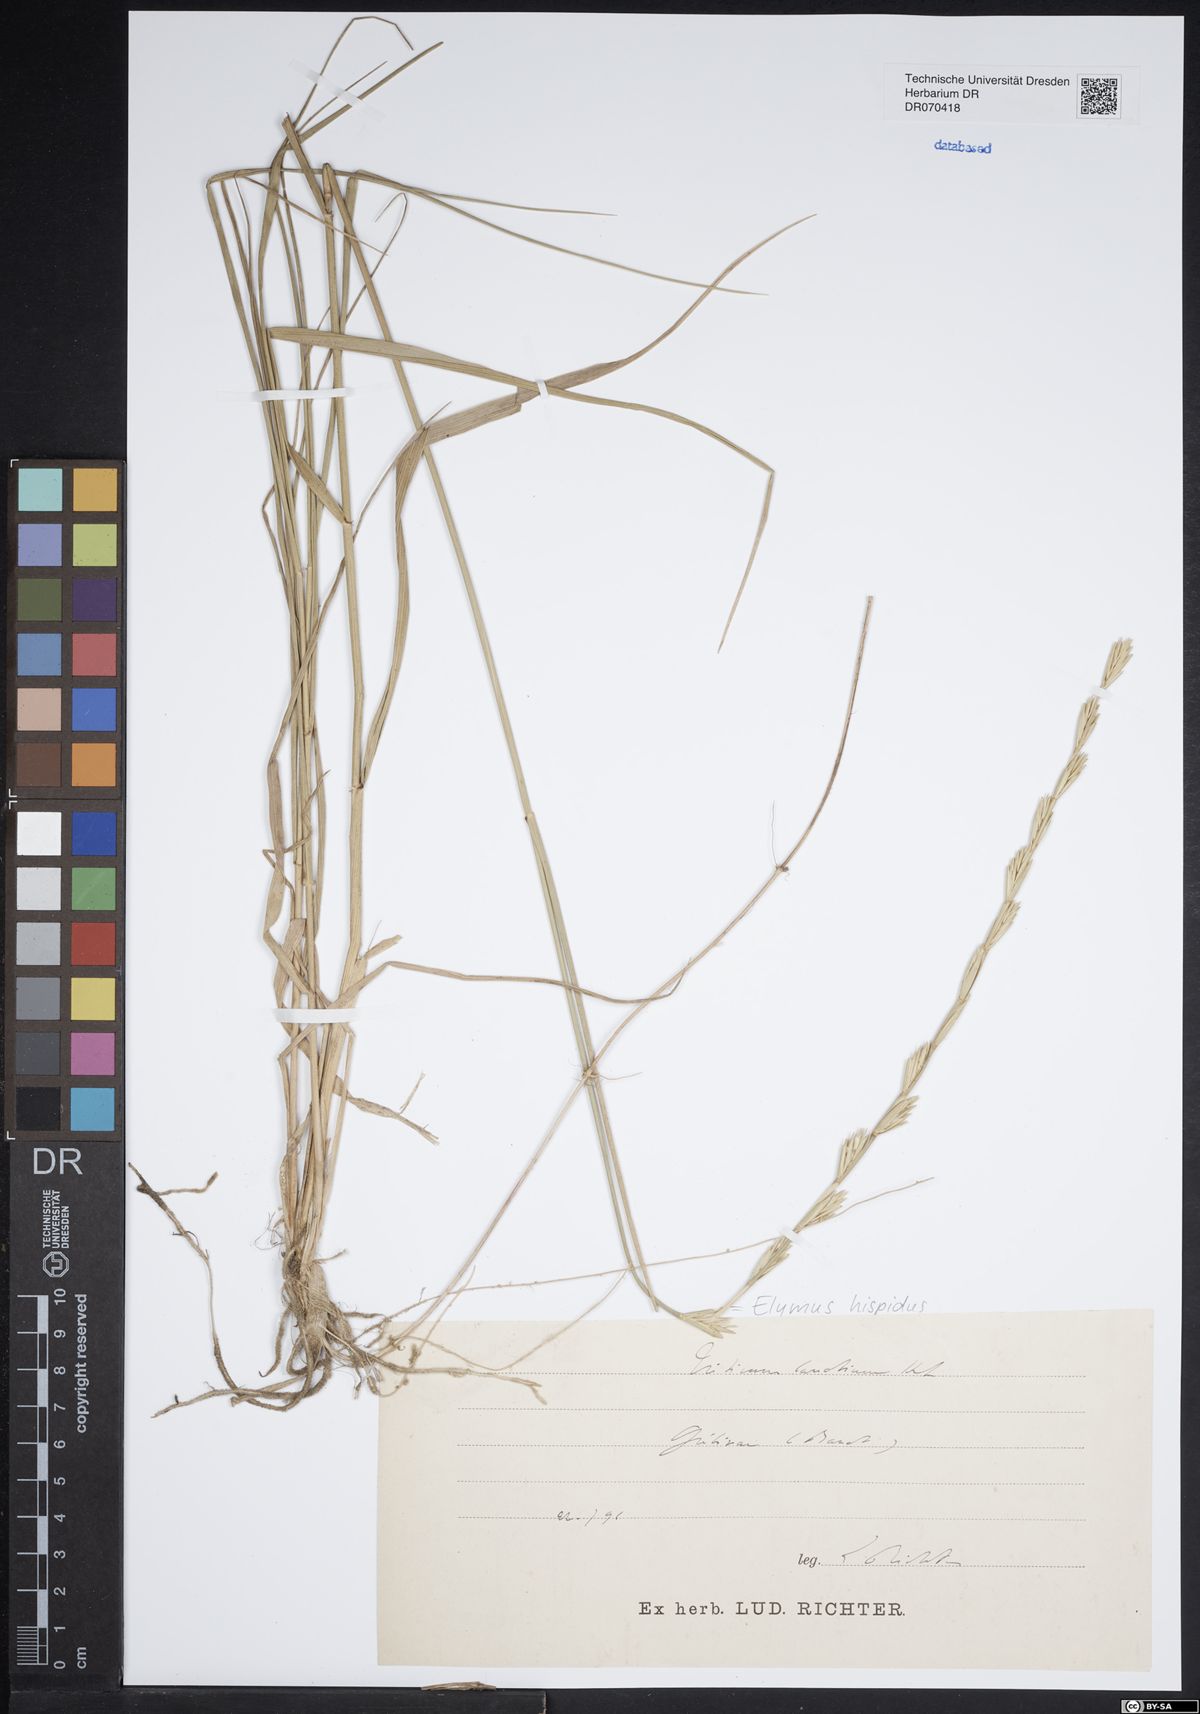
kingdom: Plantae
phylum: Tracheophyta
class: Liliopsida
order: Poales
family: Poaceae
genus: Thinopyrum
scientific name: Thinopyrum intermedium
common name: Intermediate wheatgrass
